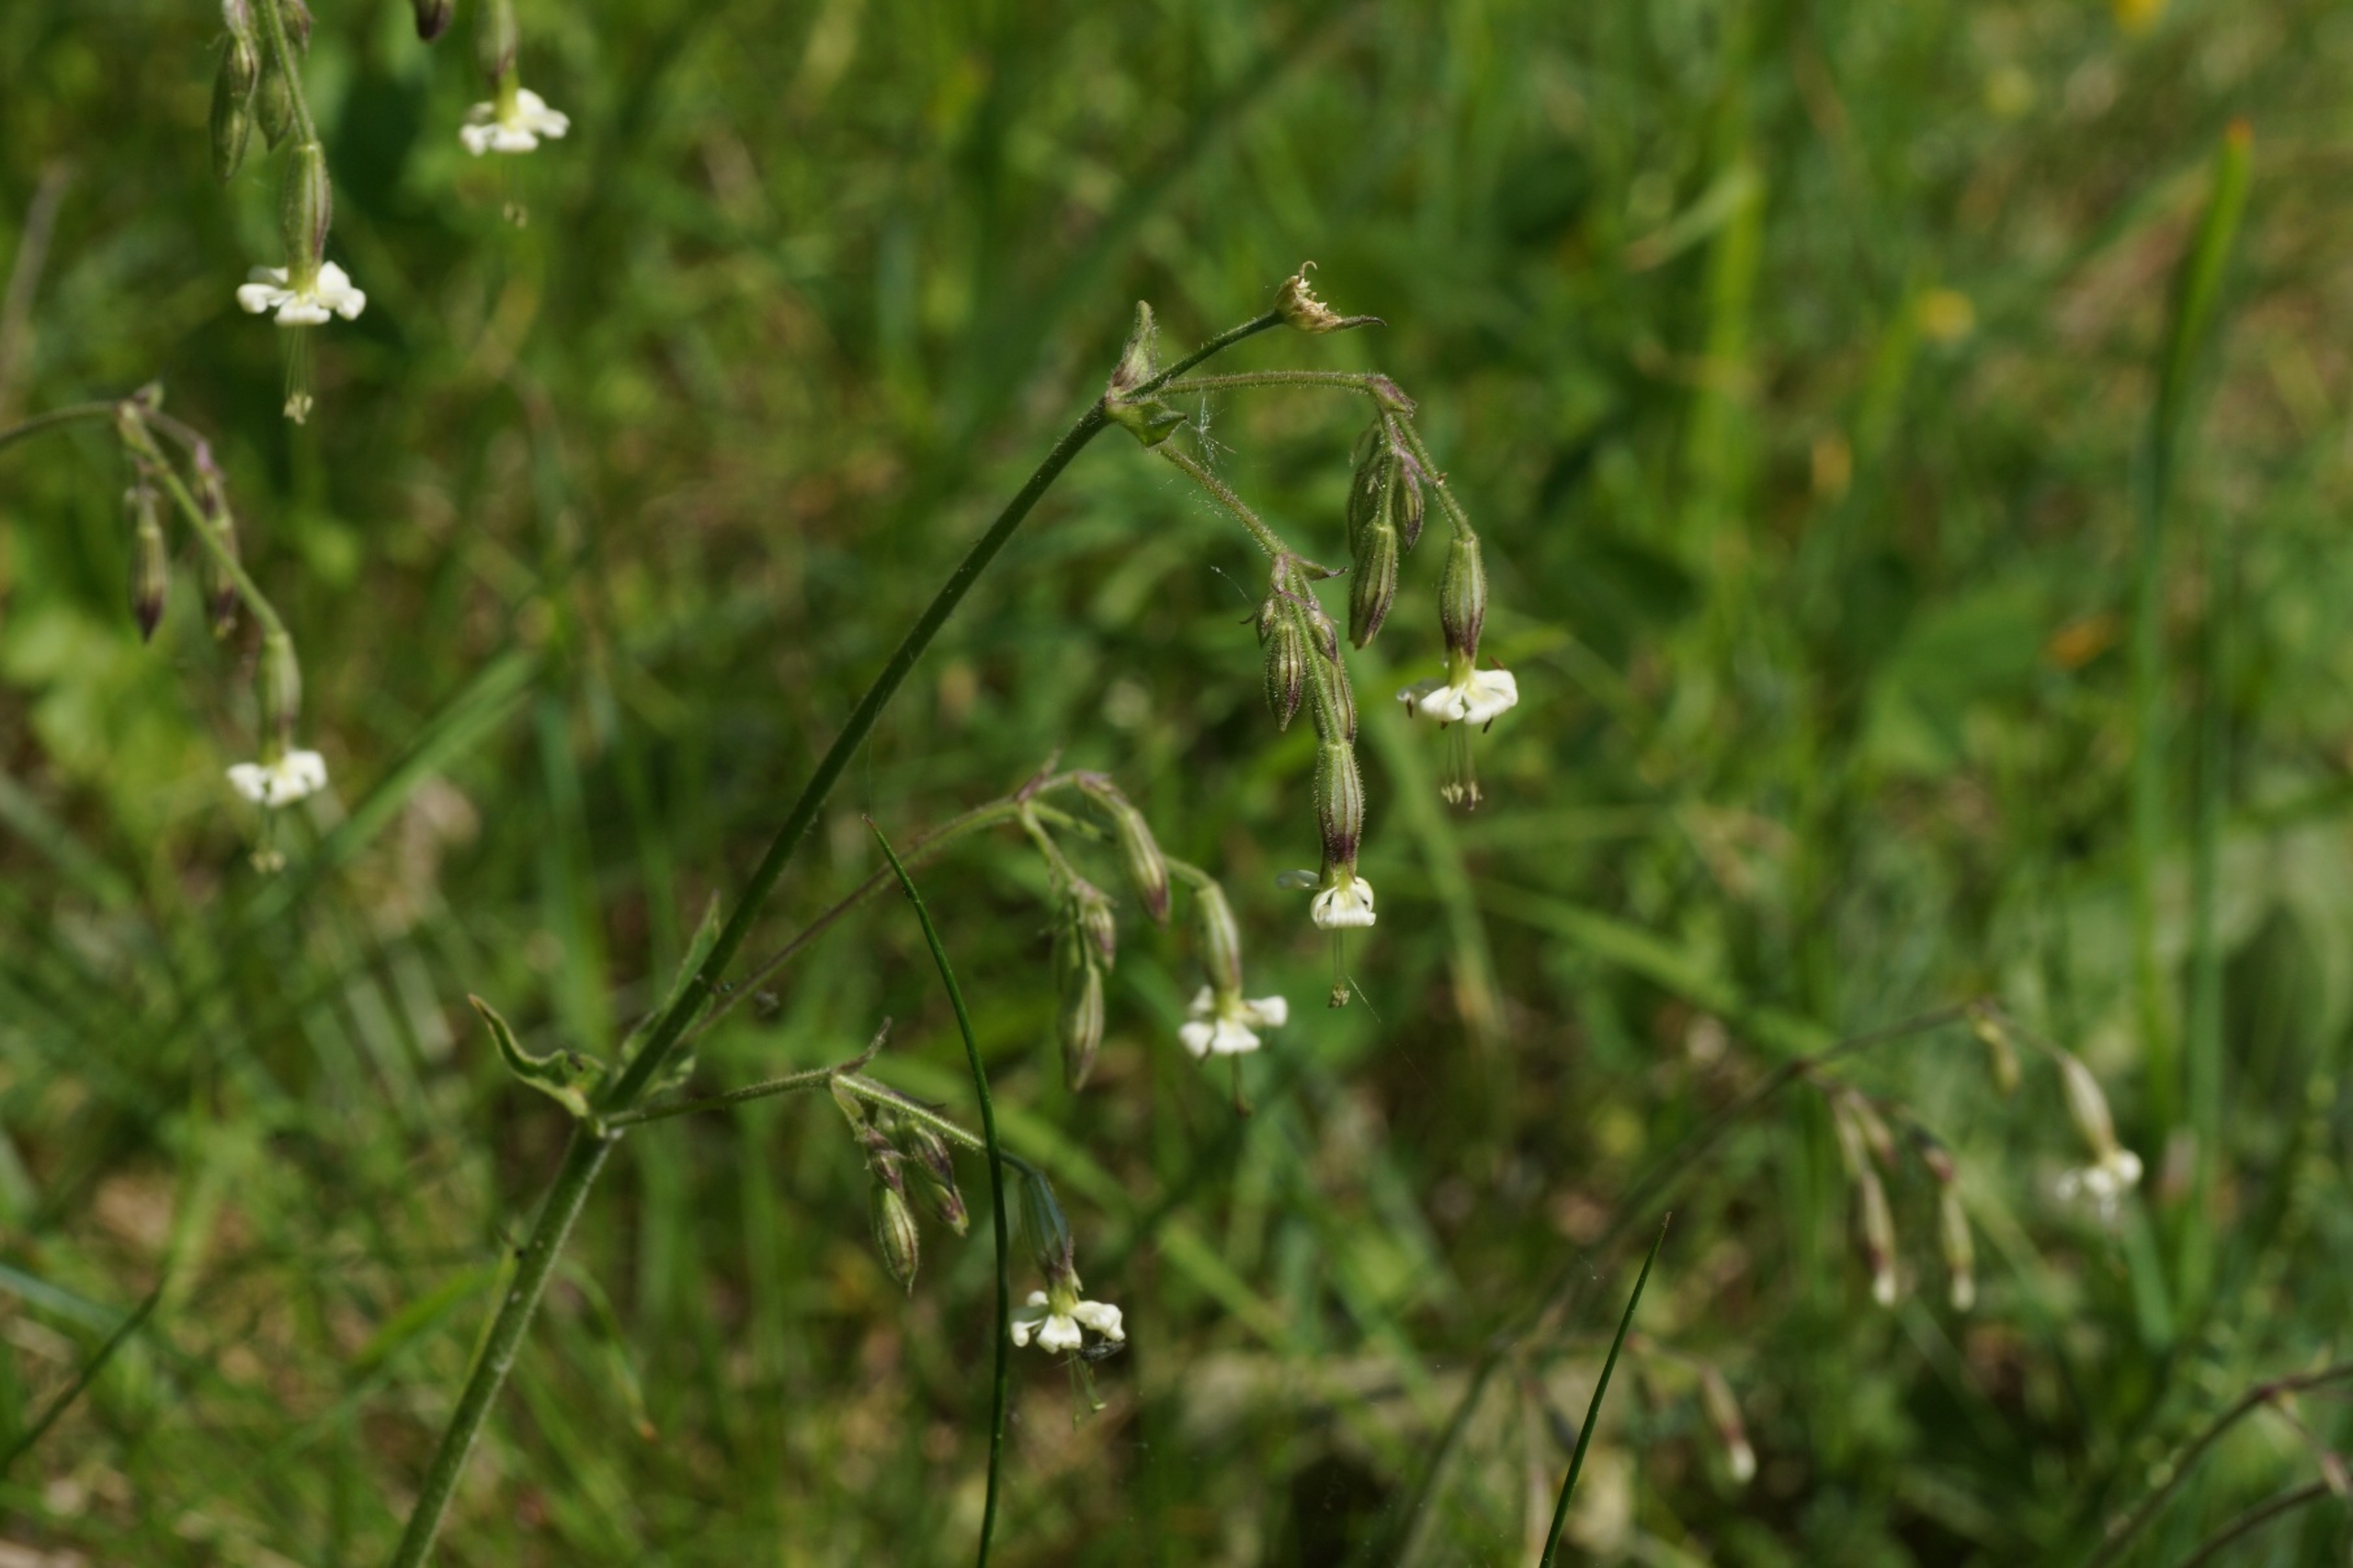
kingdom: Plantae
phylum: Tracheophyta
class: Magnoliopsida
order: Caryophyllales
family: Caryophyllaceae
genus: Silene
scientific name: Silene nutans
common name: Nikkende limurt
